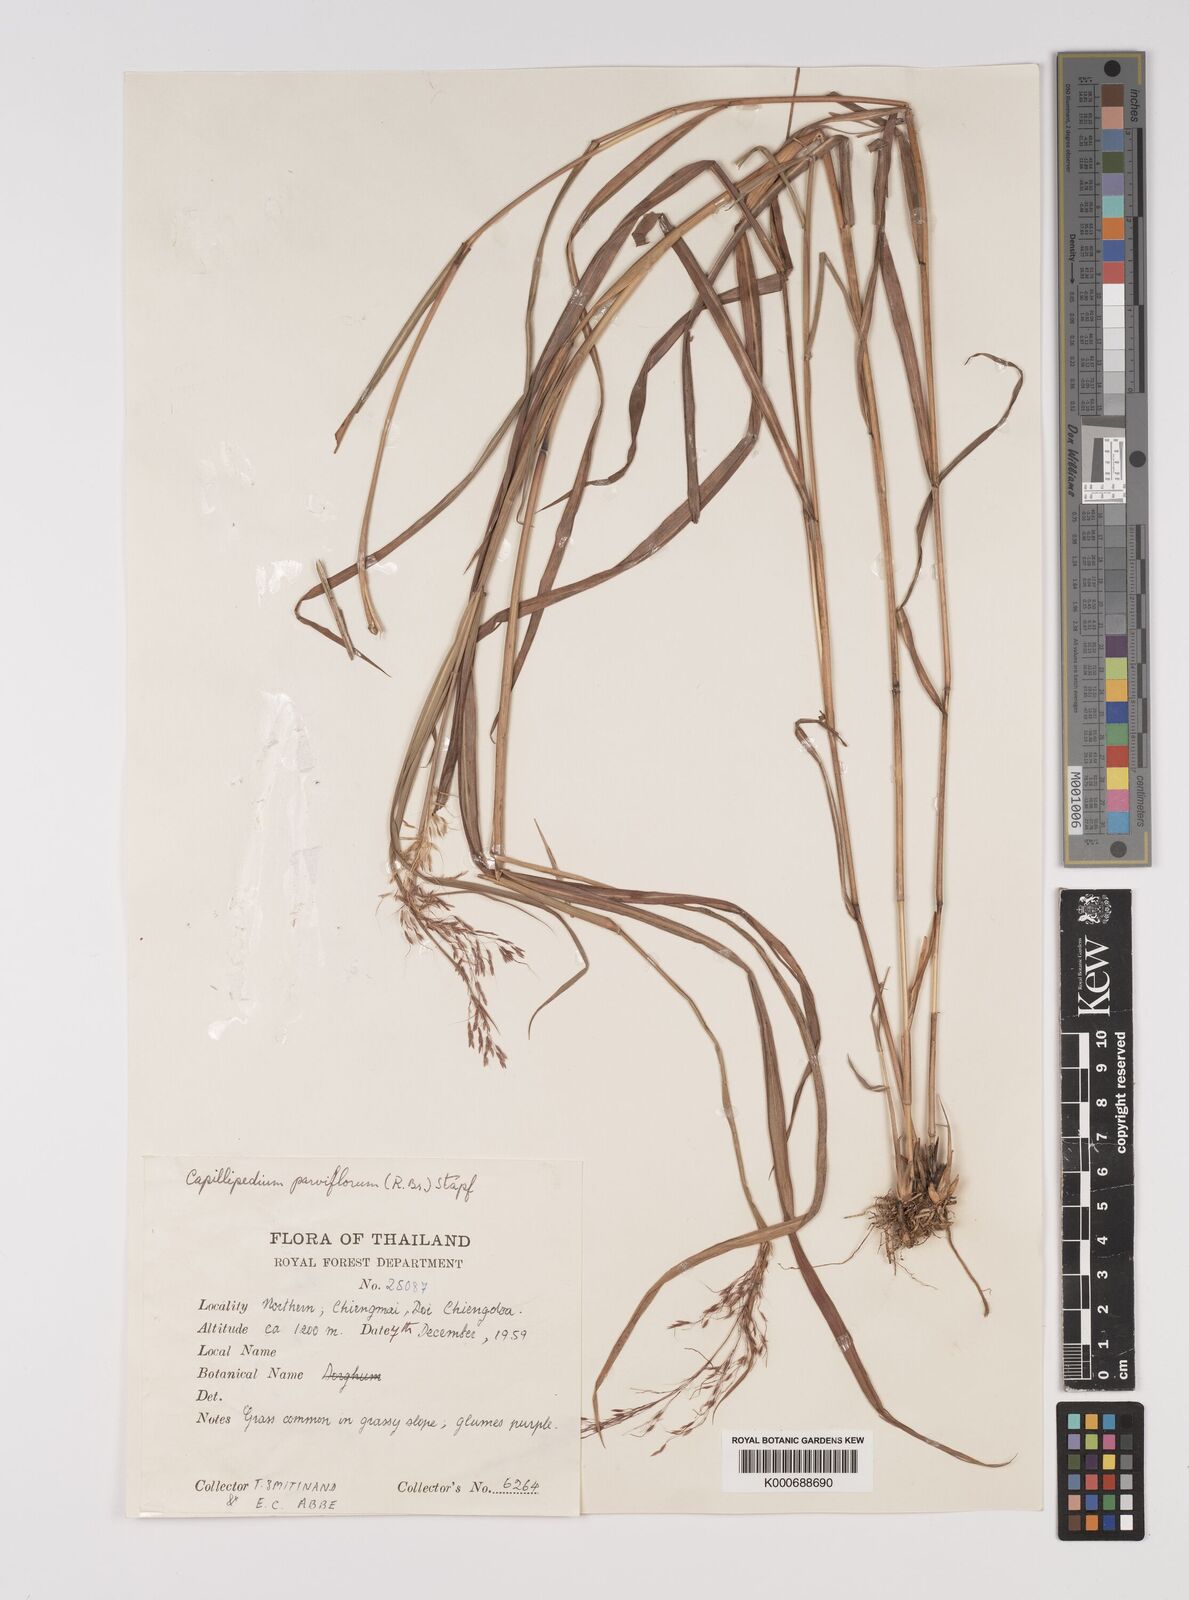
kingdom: Plantae
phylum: Tracheophyta
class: Liliopsida
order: Poales
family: Poaceae
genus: Capillipedium
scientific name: Capillipedium parviflorum
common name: Golden-beard
